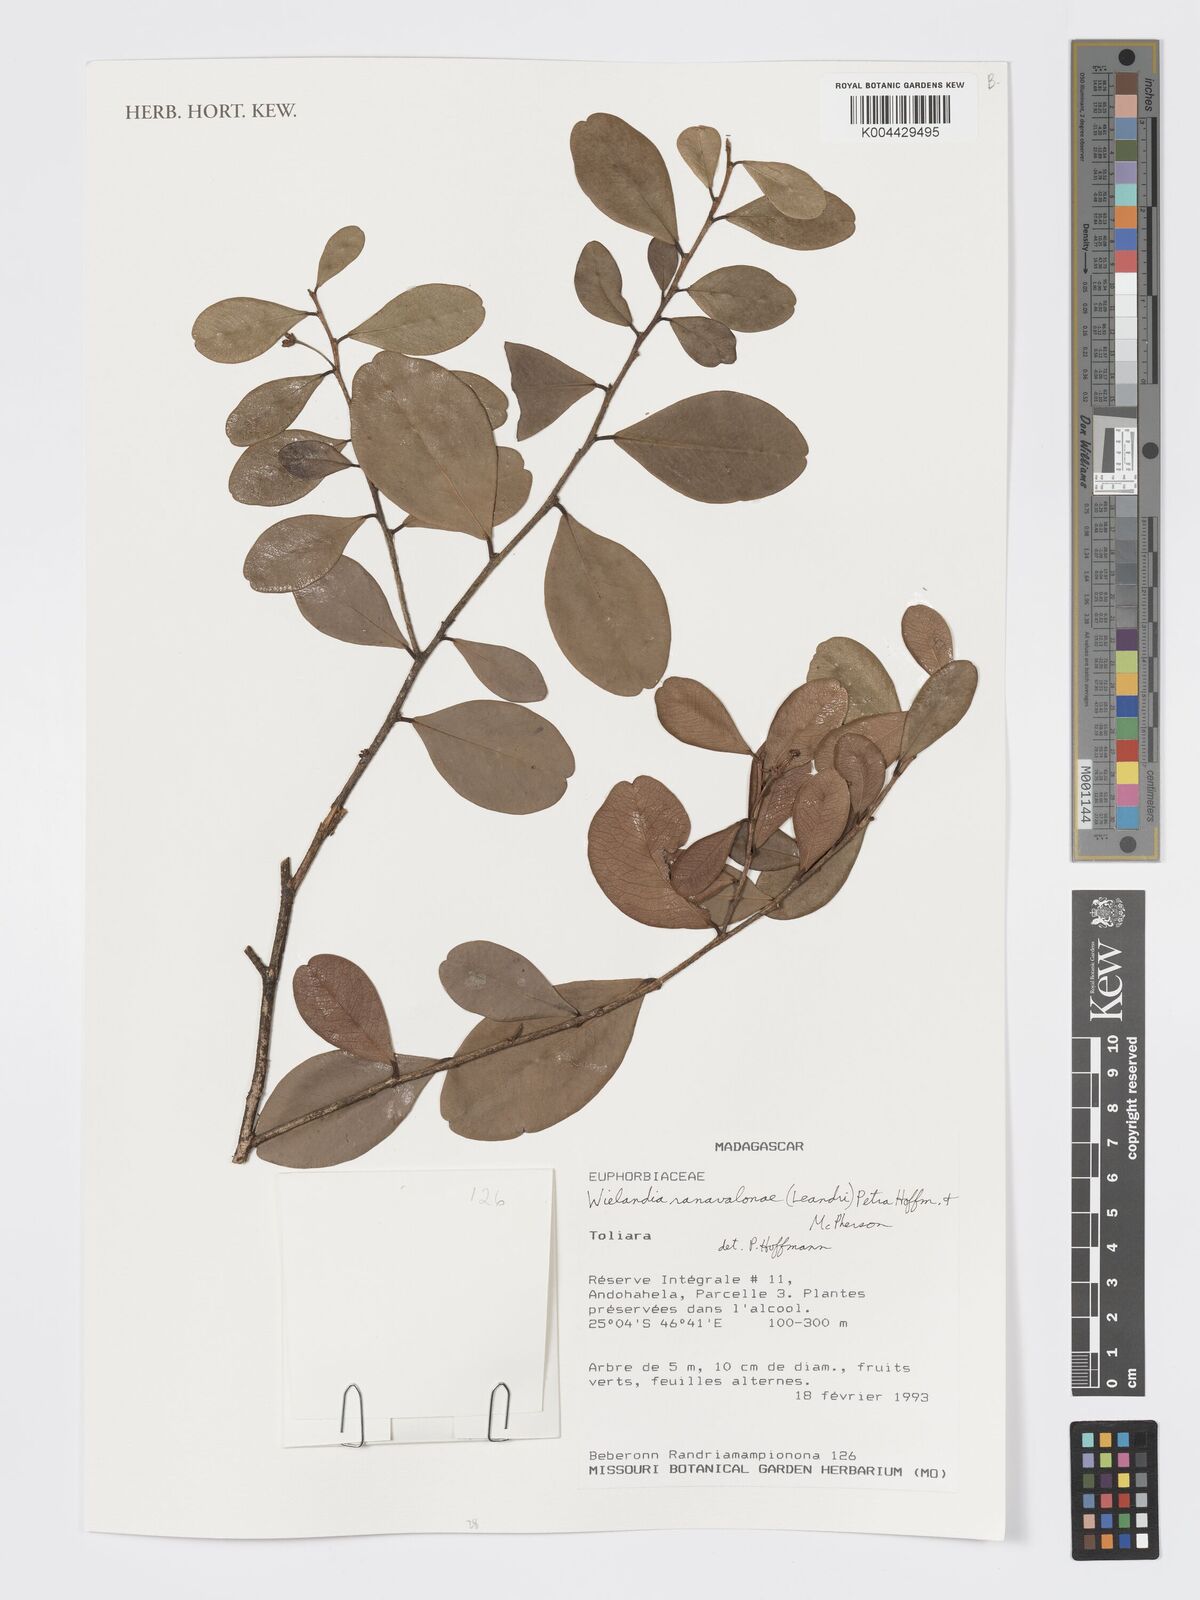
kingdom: Plantae
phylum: Tracheophyta
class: Magnoliopsida
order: Malpighiales
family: Phyllanthaceae
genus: Wielandia
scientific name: Wielandia ranavalonae
